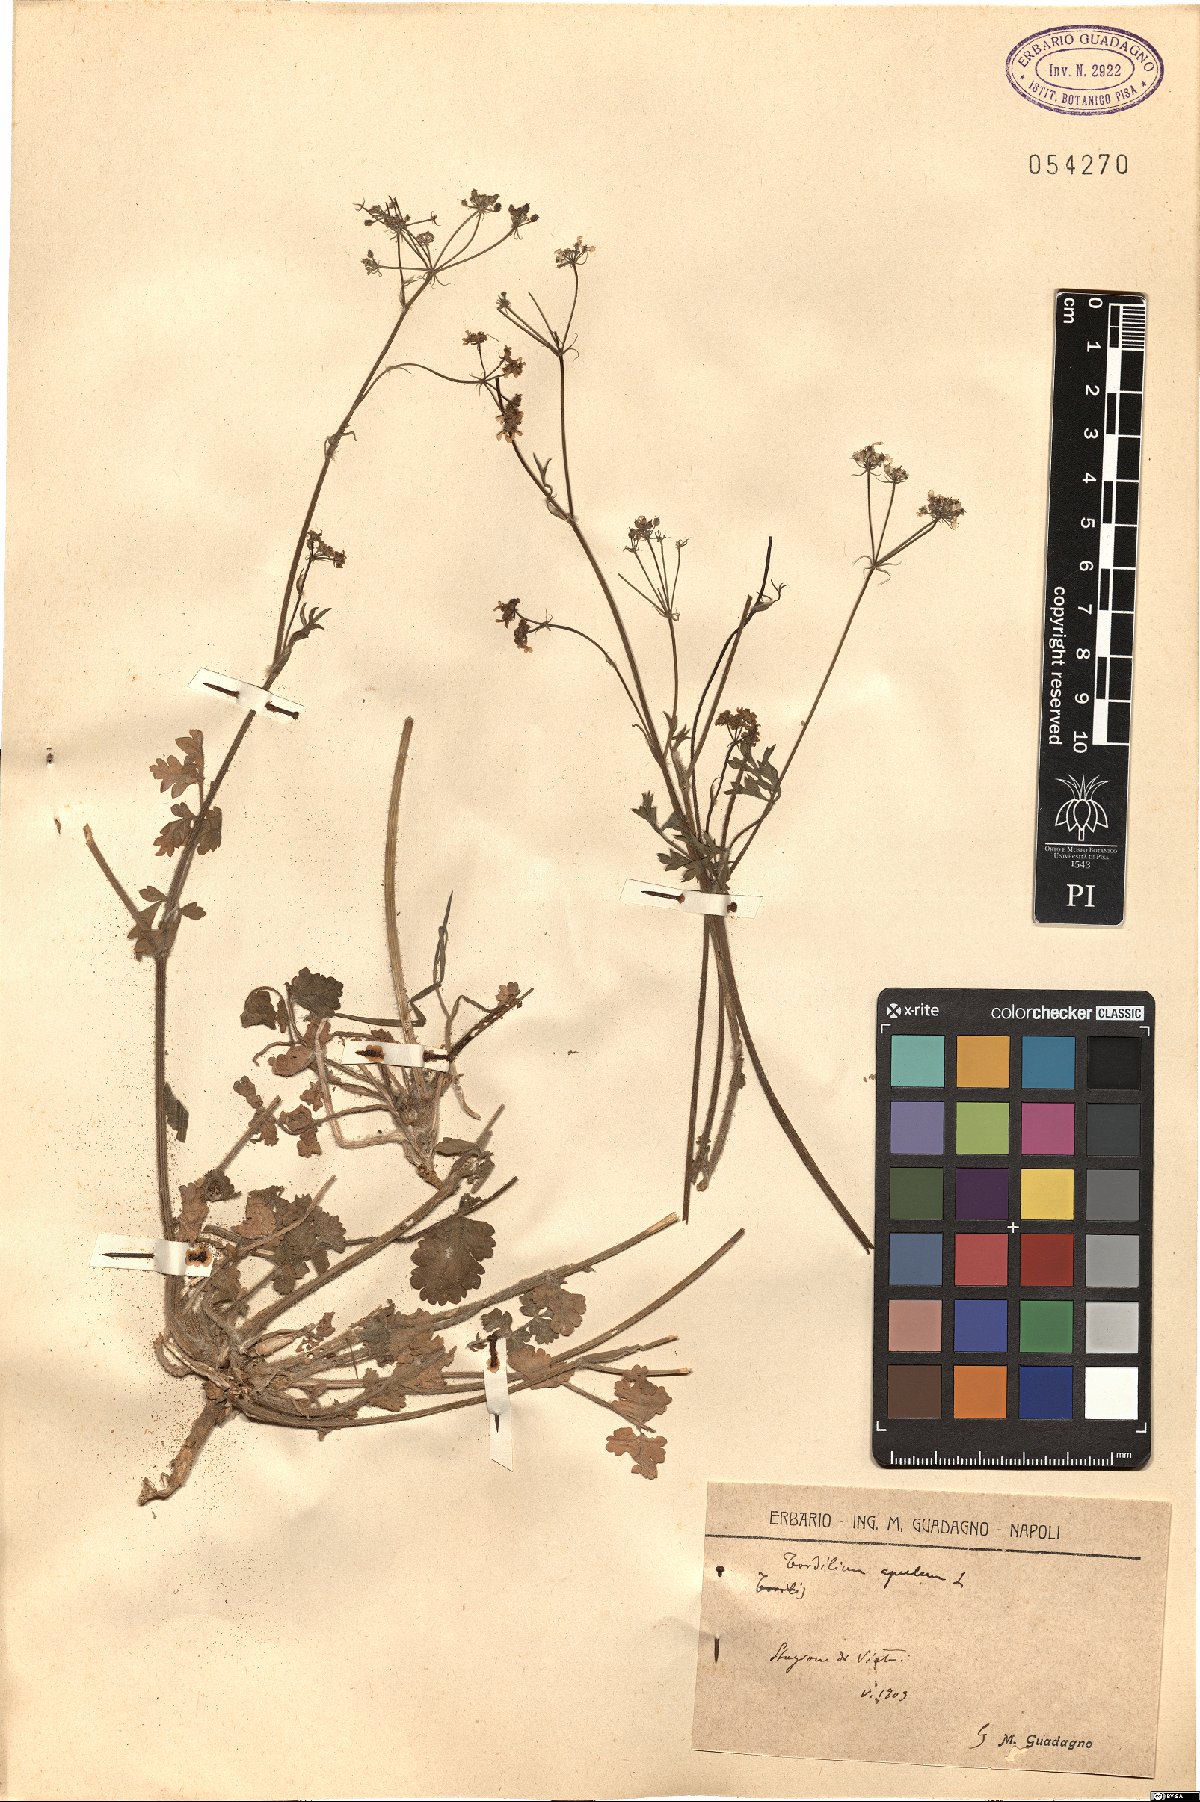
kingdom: Plantae
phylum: Tracheophyta
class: Magnoliopsida
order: Apiales
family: Apiaceae
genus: Tordylium
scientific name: Tordylium apulum
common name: Mediterranean hartwort
